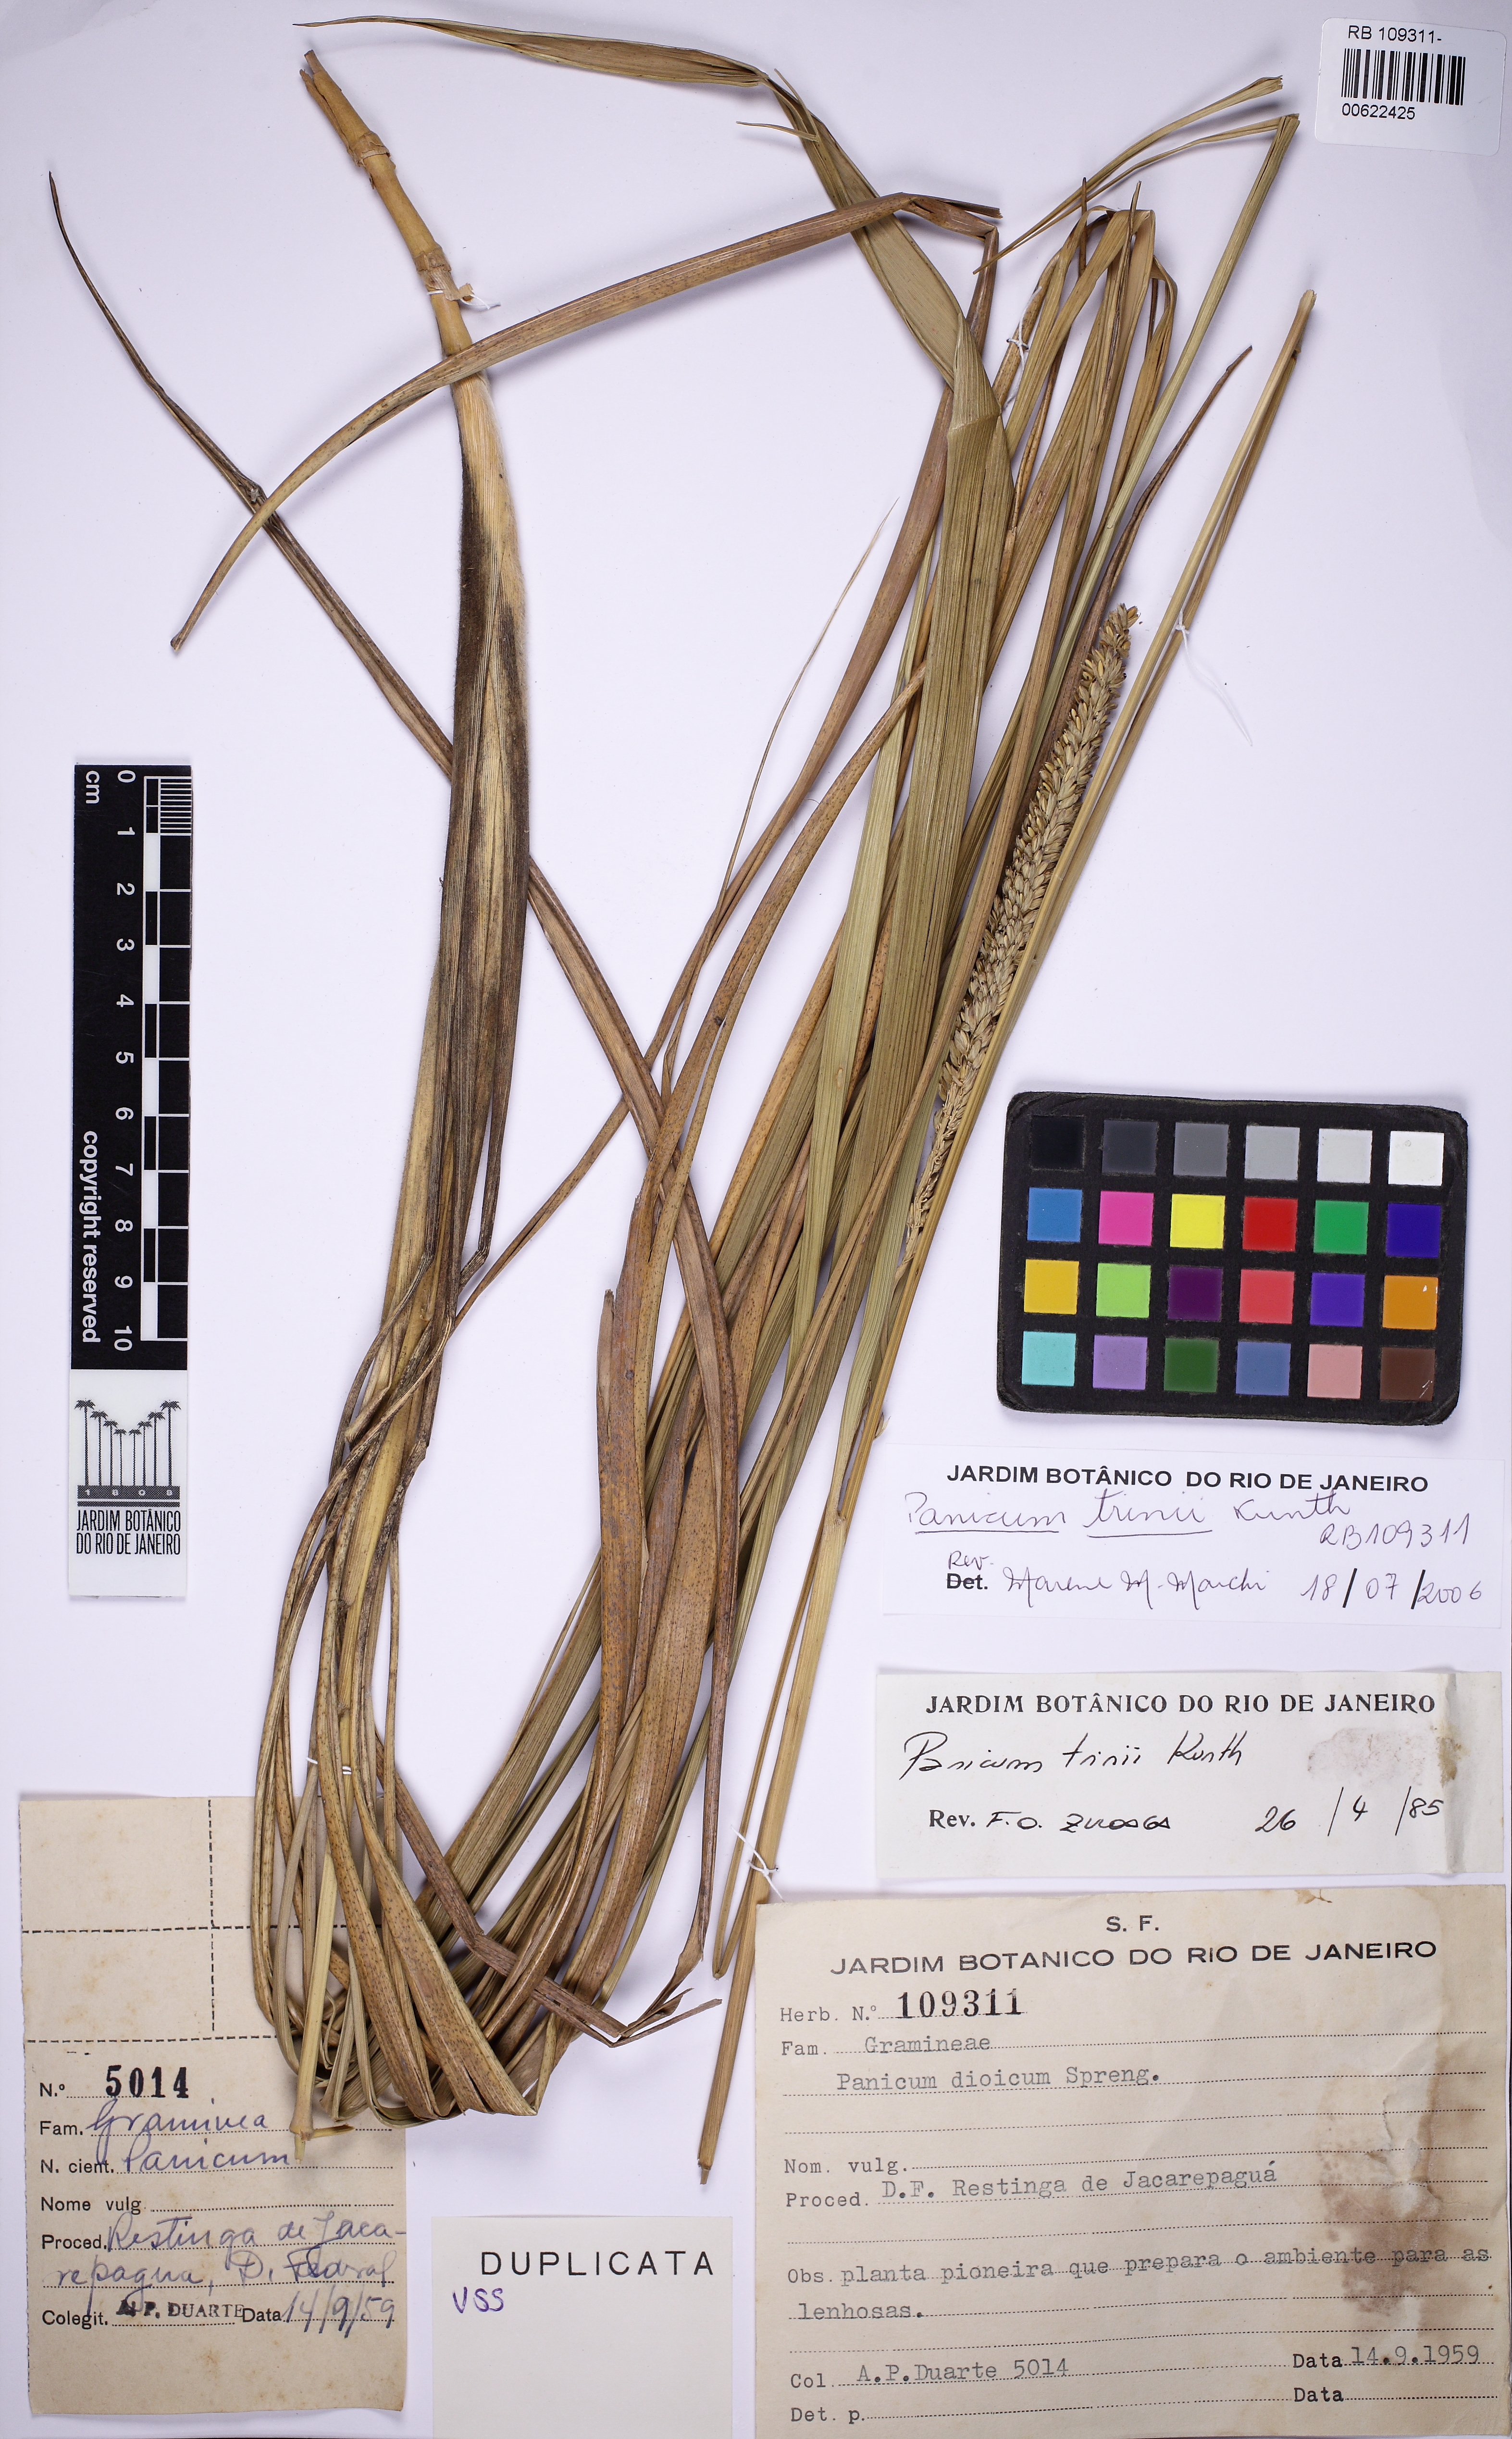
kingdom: Plantae
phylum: Tracheophyta
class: Liliopsida
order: Poales
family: Poaceae
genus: Renvoizea
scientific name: Renvoizea trinii
